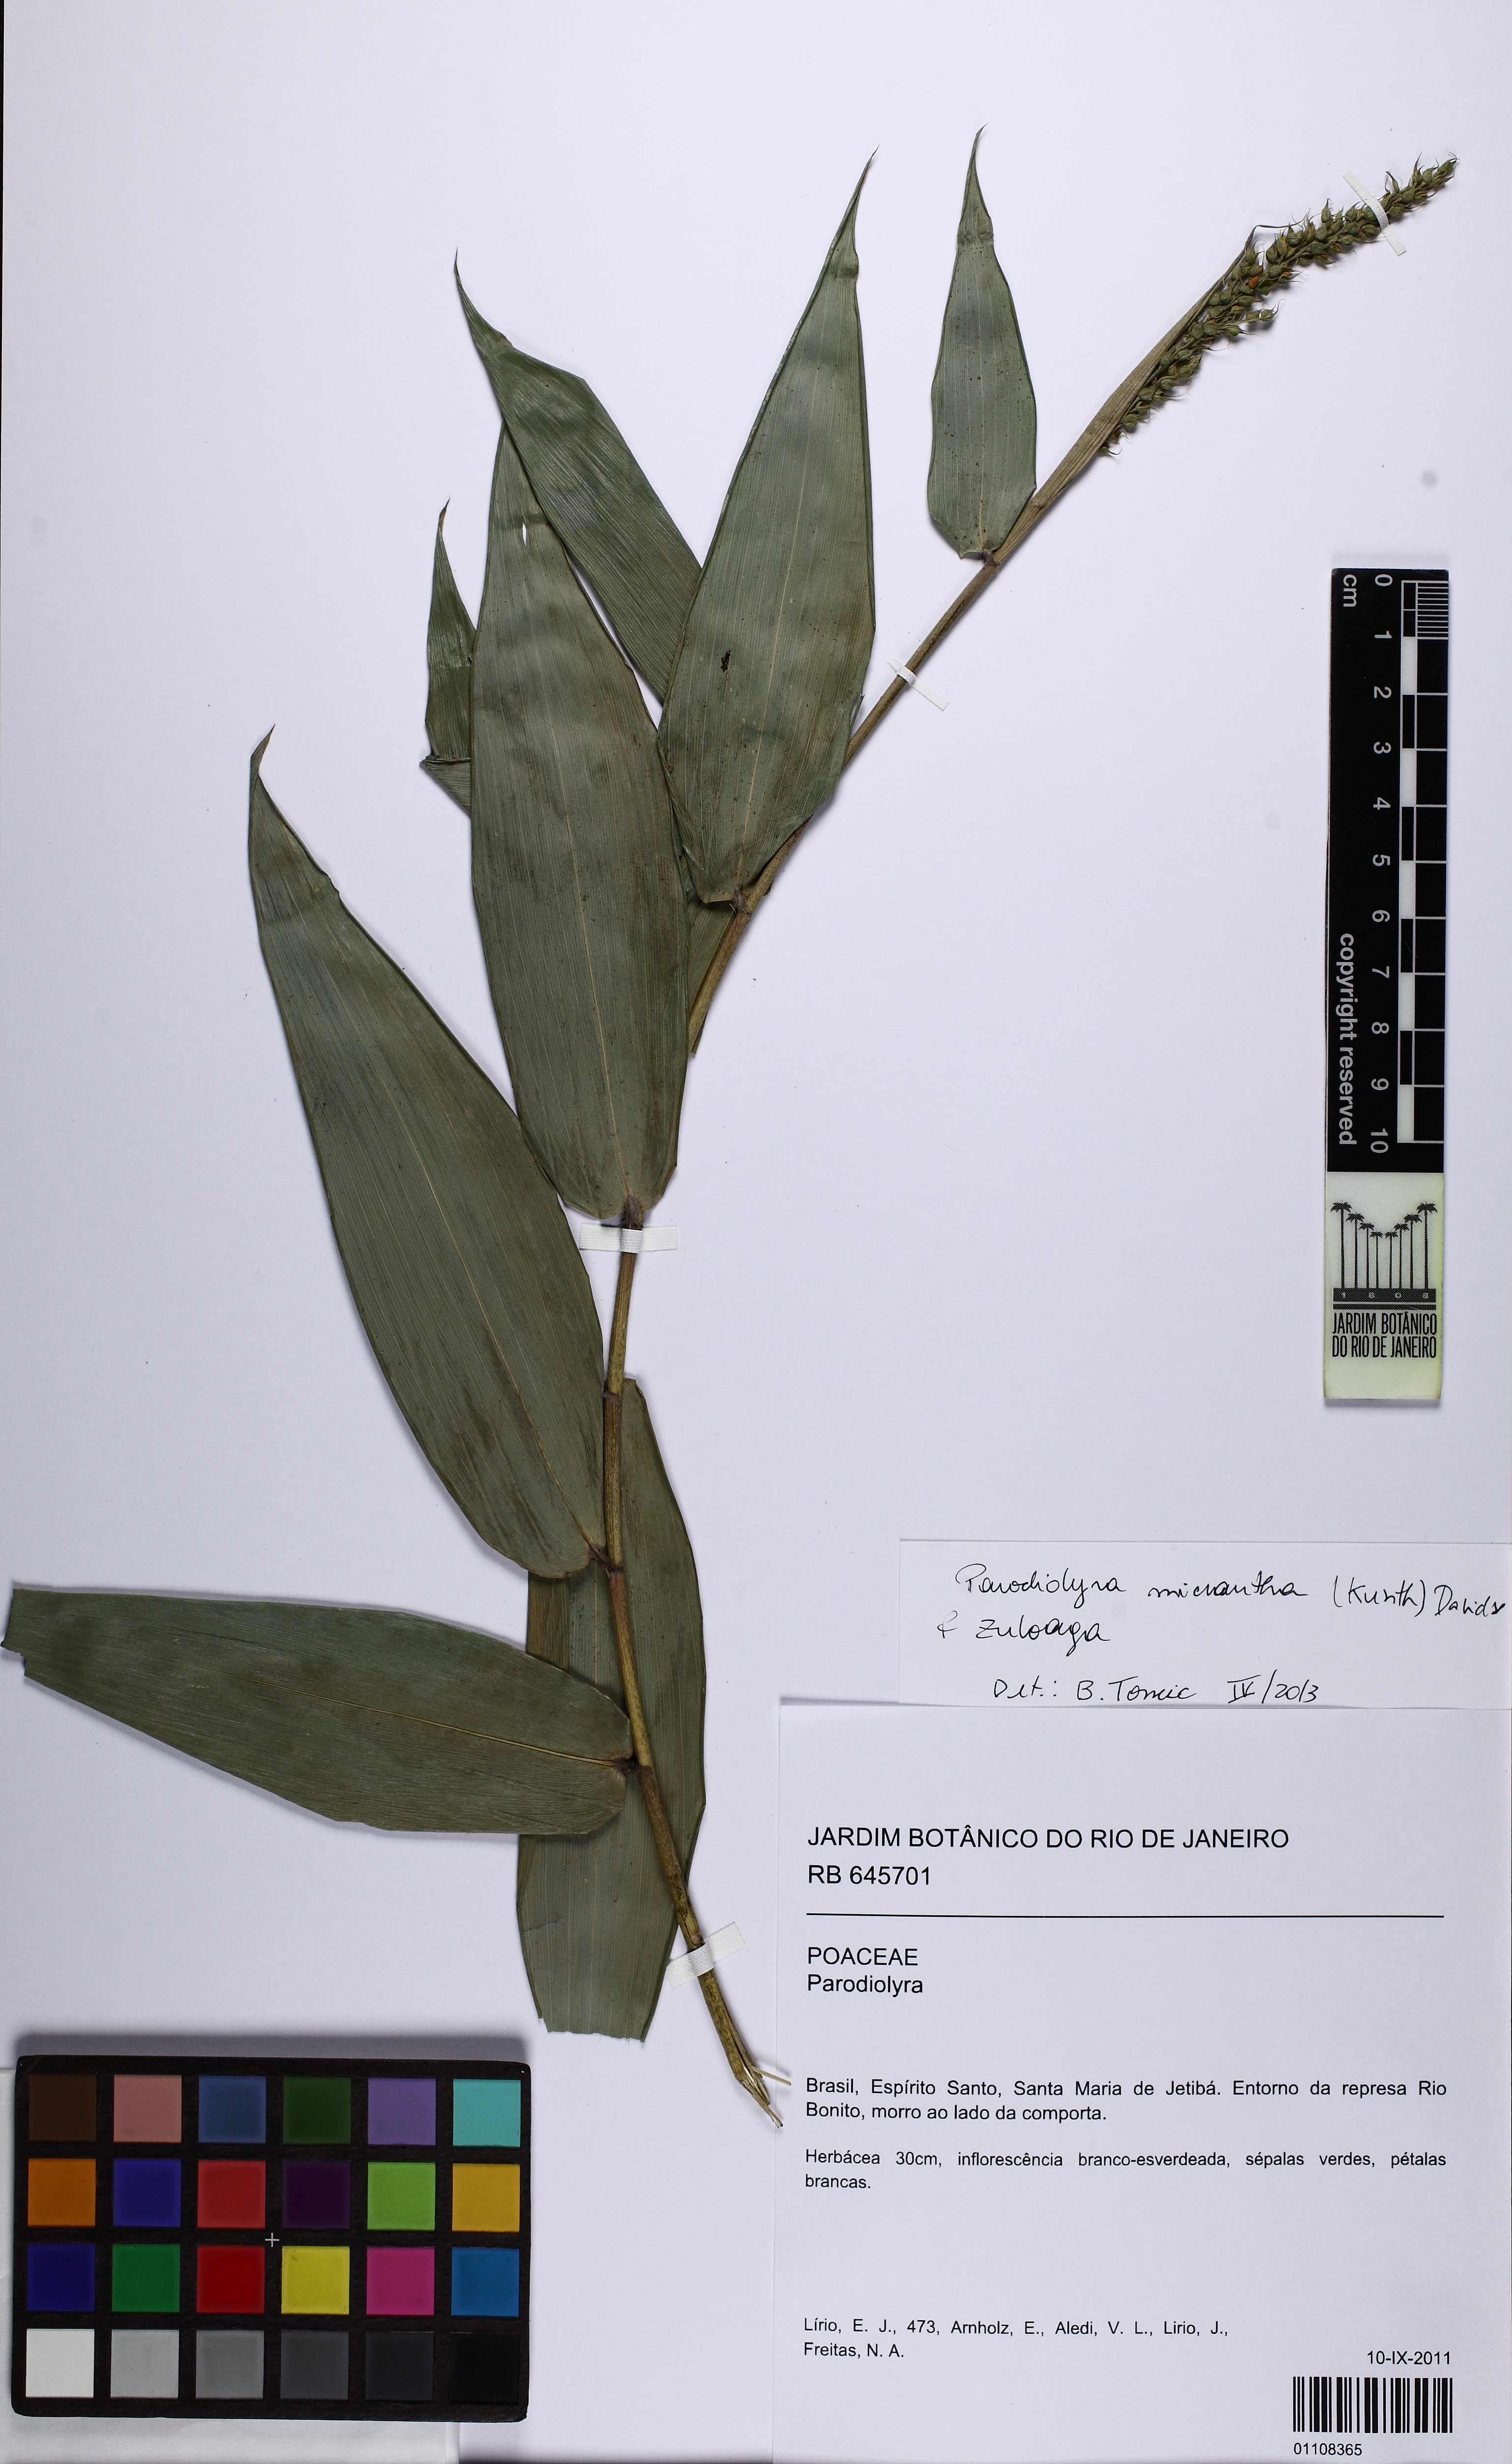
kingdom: Plantae
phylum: Tracheophyta
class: Liliopsida
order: Poales
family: Poaceae
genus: Parodiolyra
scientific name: Parodiolyra
